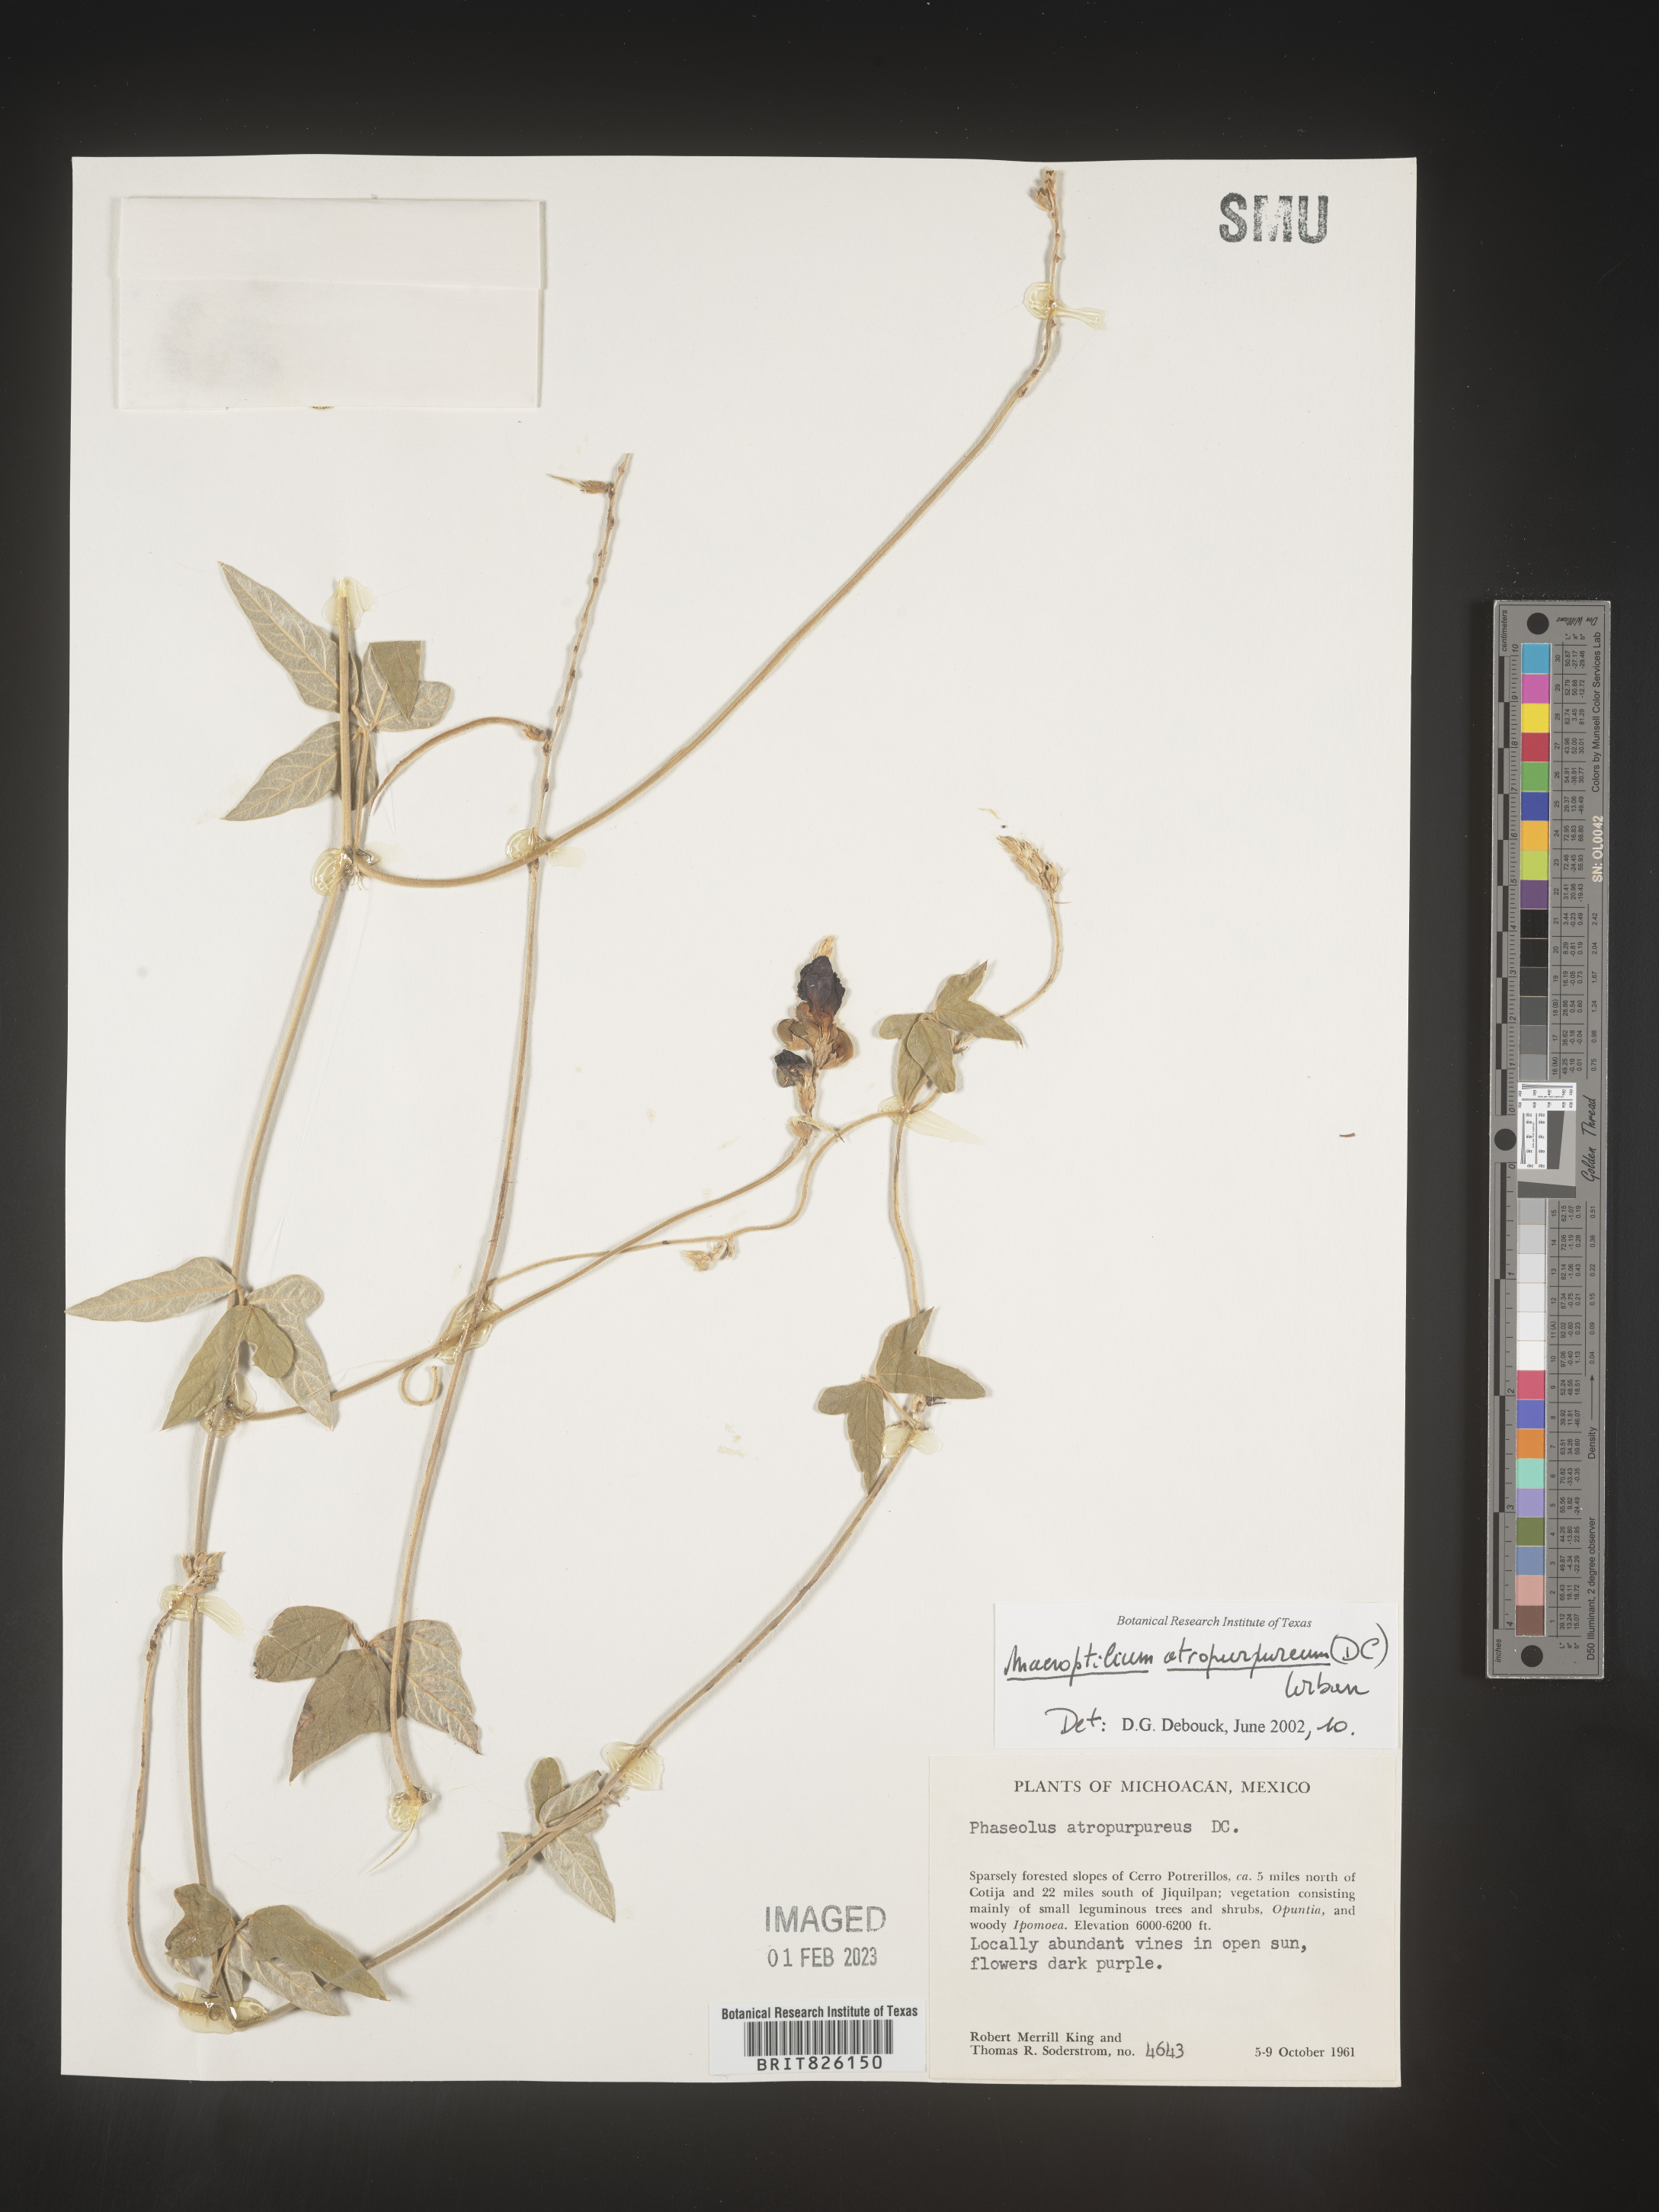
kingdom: Plantae
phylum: Tracheophyta
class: Magnoliopsida
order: Fabales
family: Fabaceae
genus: Macroptilium
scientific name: Macroptilium
